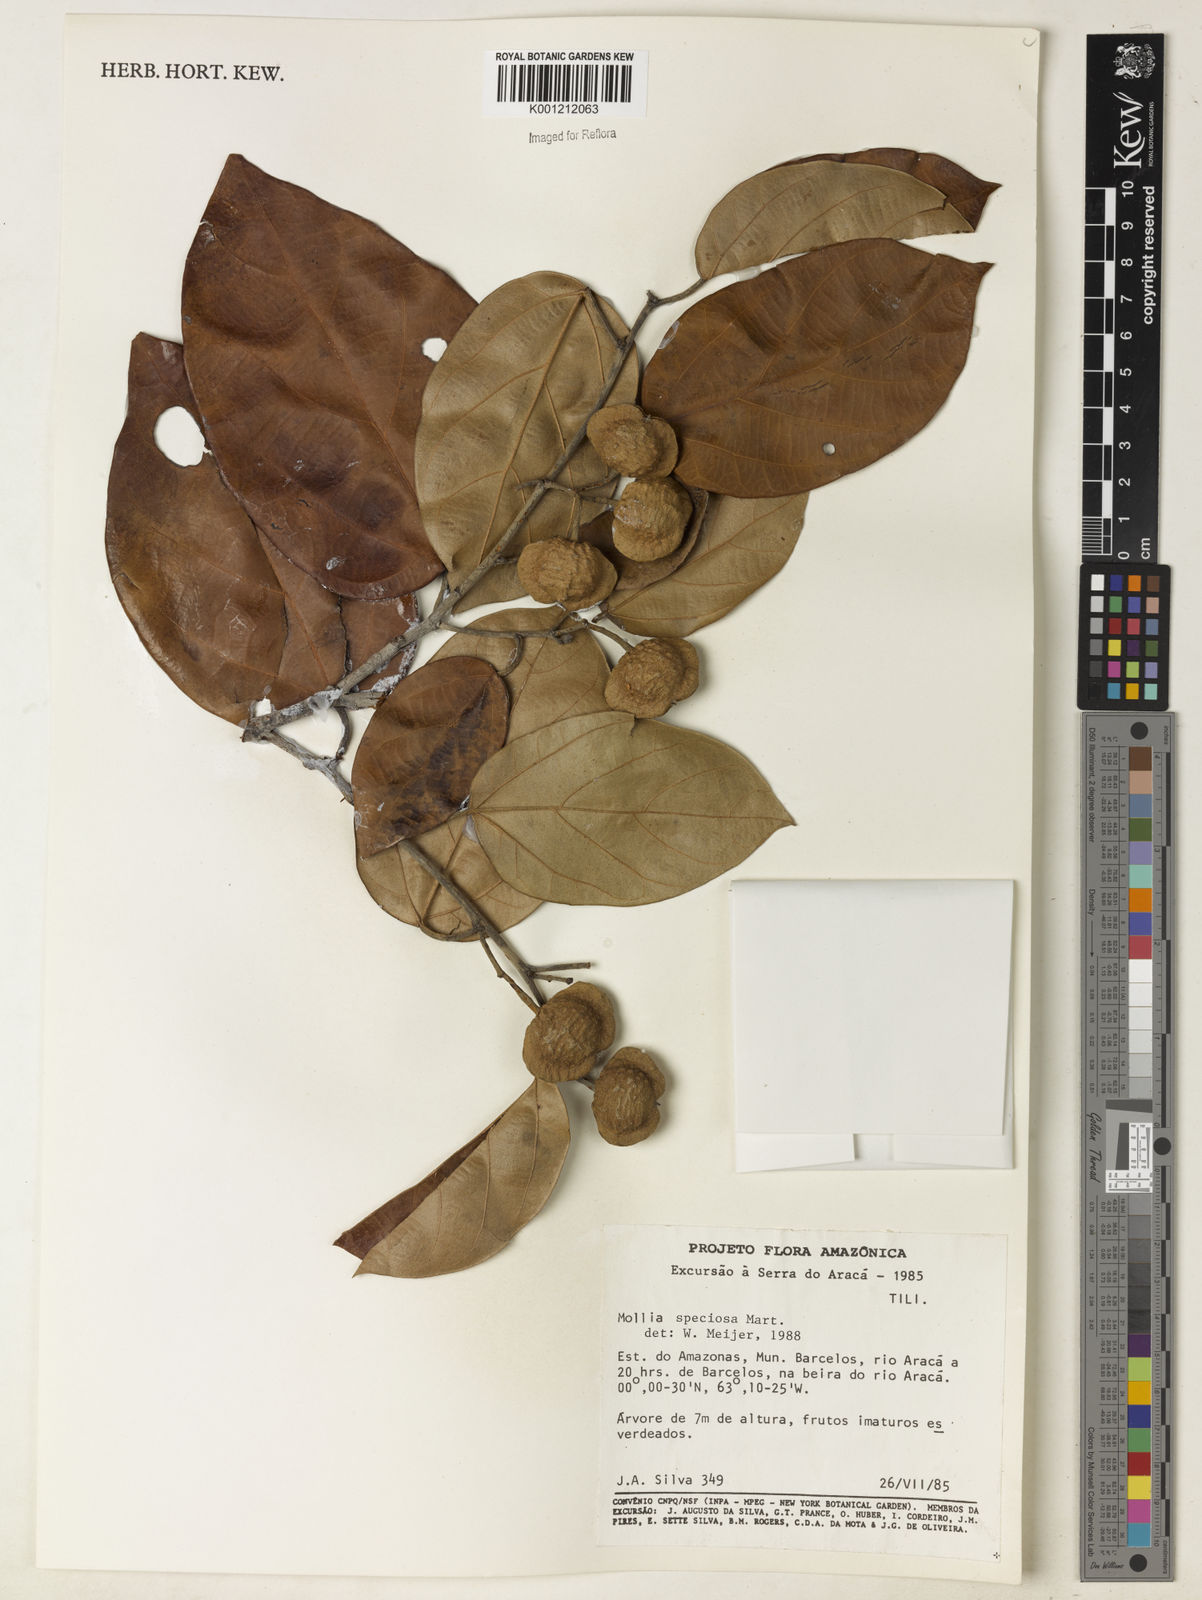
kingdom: Plantae
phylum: Tracheophyta
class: Magnoliopsida
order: Malvales
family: Malvaceae
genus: Mollia
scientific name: Mollia speciosa
